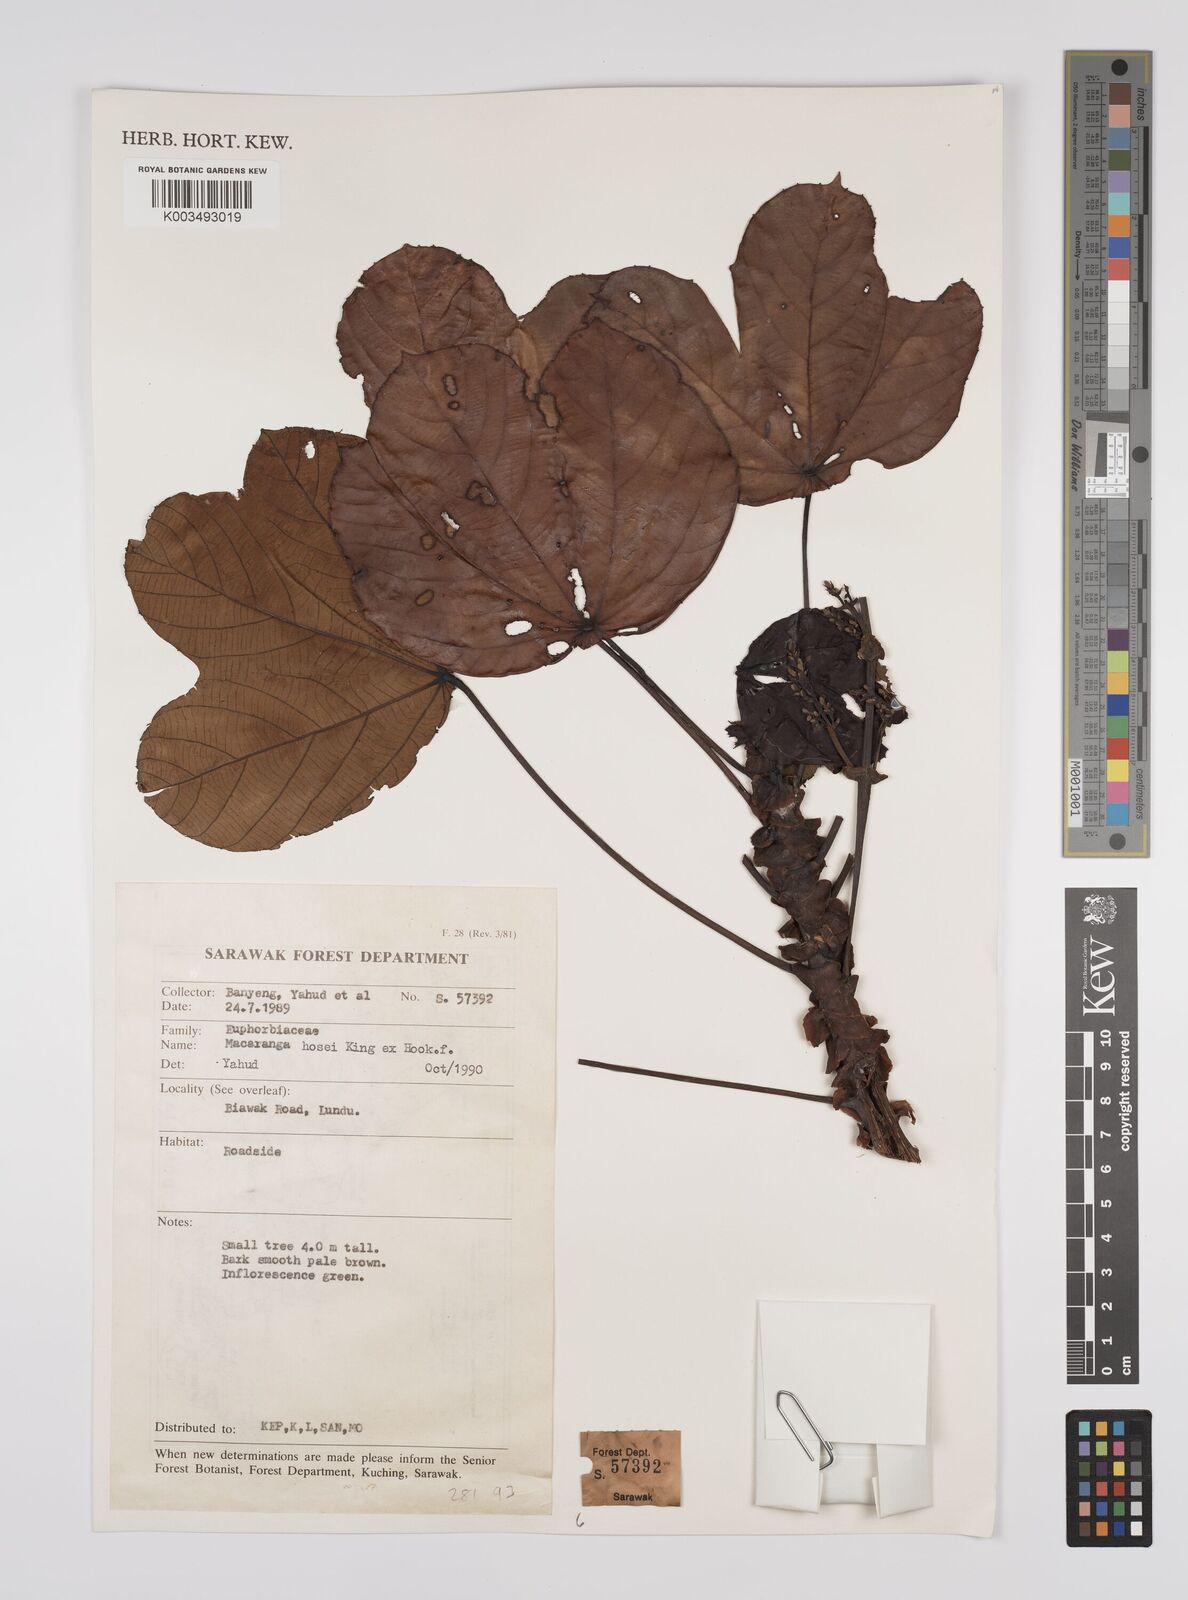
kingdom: Plantae
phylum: Tracheophyta
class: Magnoliopsida
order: Malpighiales
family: Euphorbiaceae
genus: Macaranga
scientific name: Macaranga hosei
